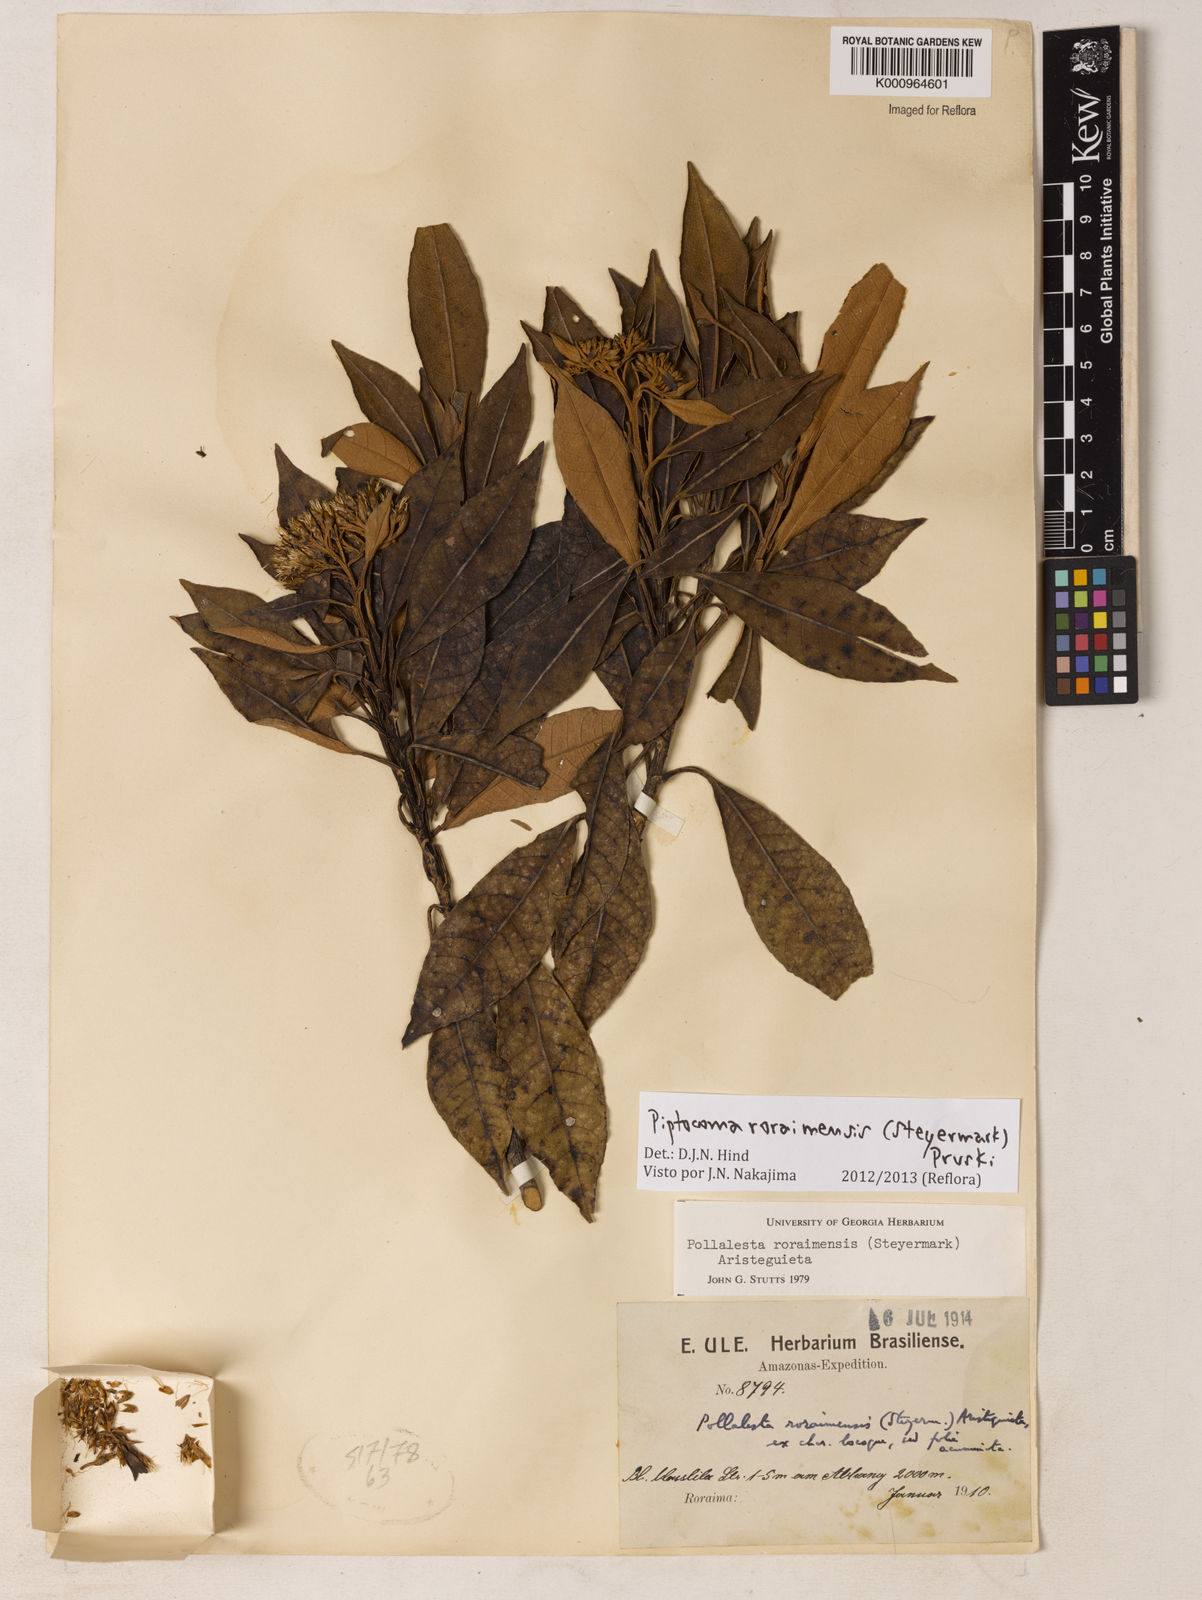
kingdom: Plantae
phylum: Tracheophyta
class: Magnoliopsida
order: Asterales
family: Asteraceae
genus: Piptocoma
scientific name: Piptocoma roraimensis
